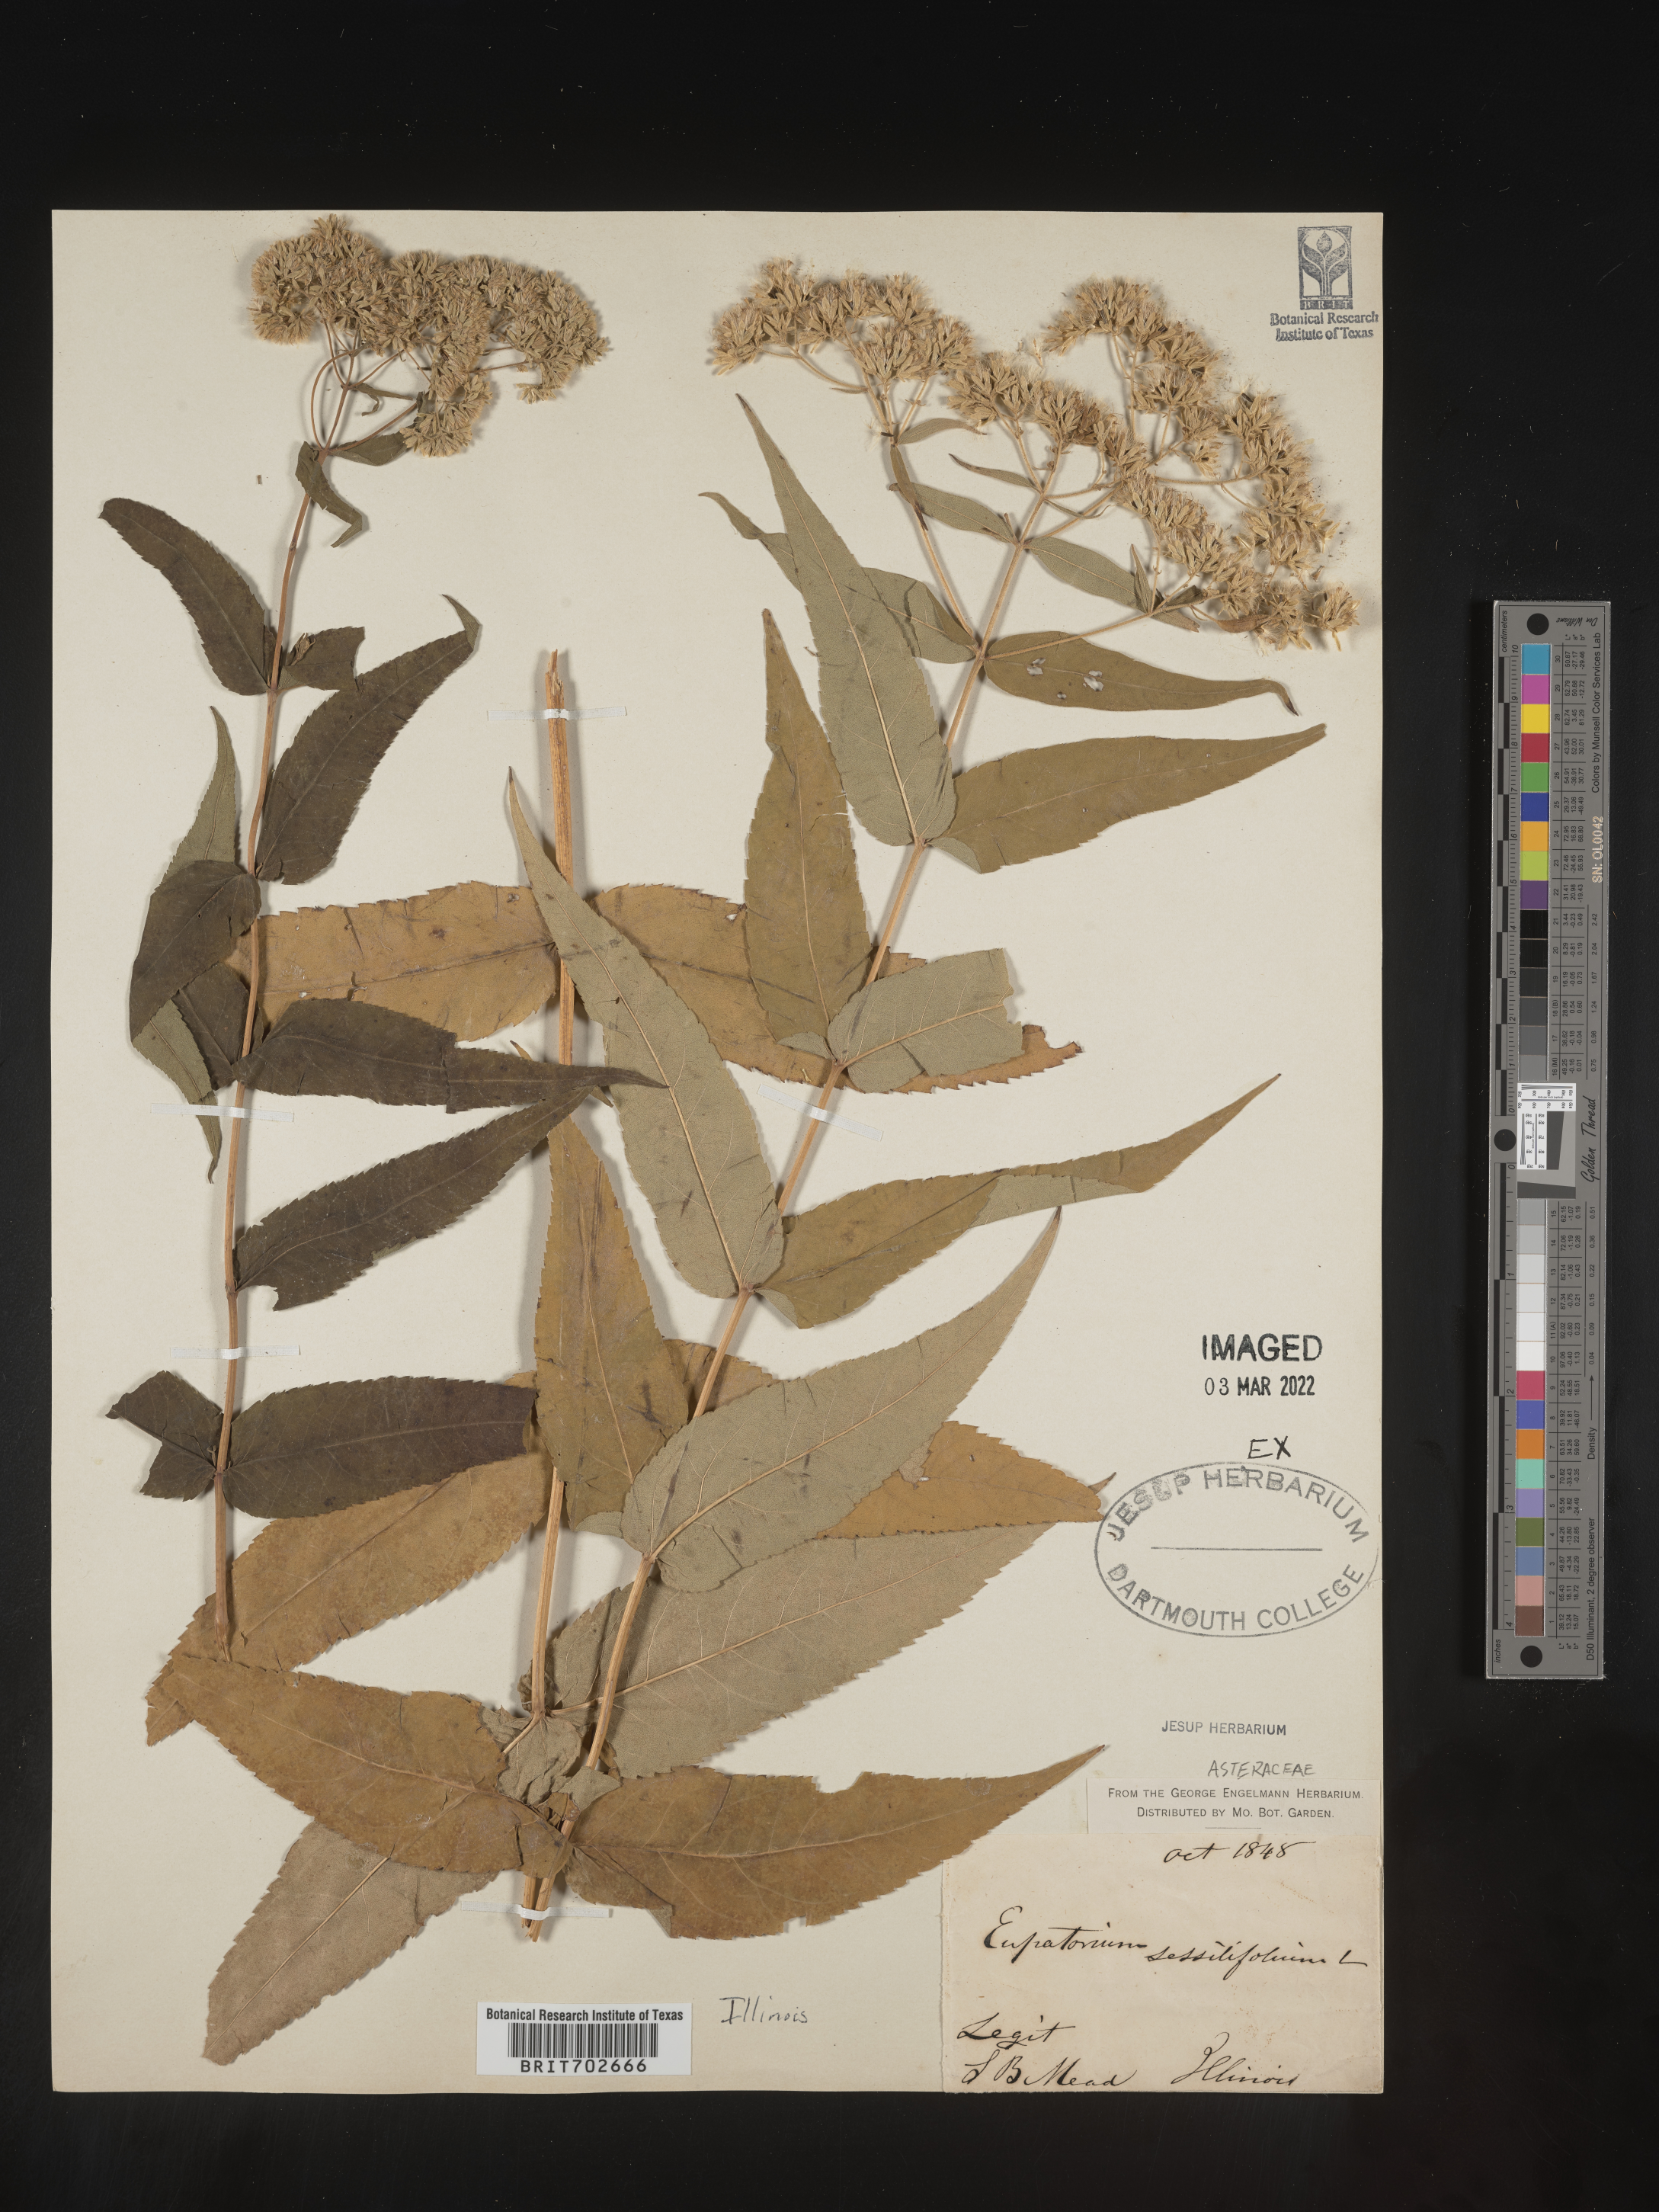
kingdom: Plantae
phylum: Tracheophyta
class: Magnoliopsida
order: Asterales
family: Asteraceae
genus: Eupatorium
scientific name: Eupatorium sessilifolium
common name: Upland boneset
